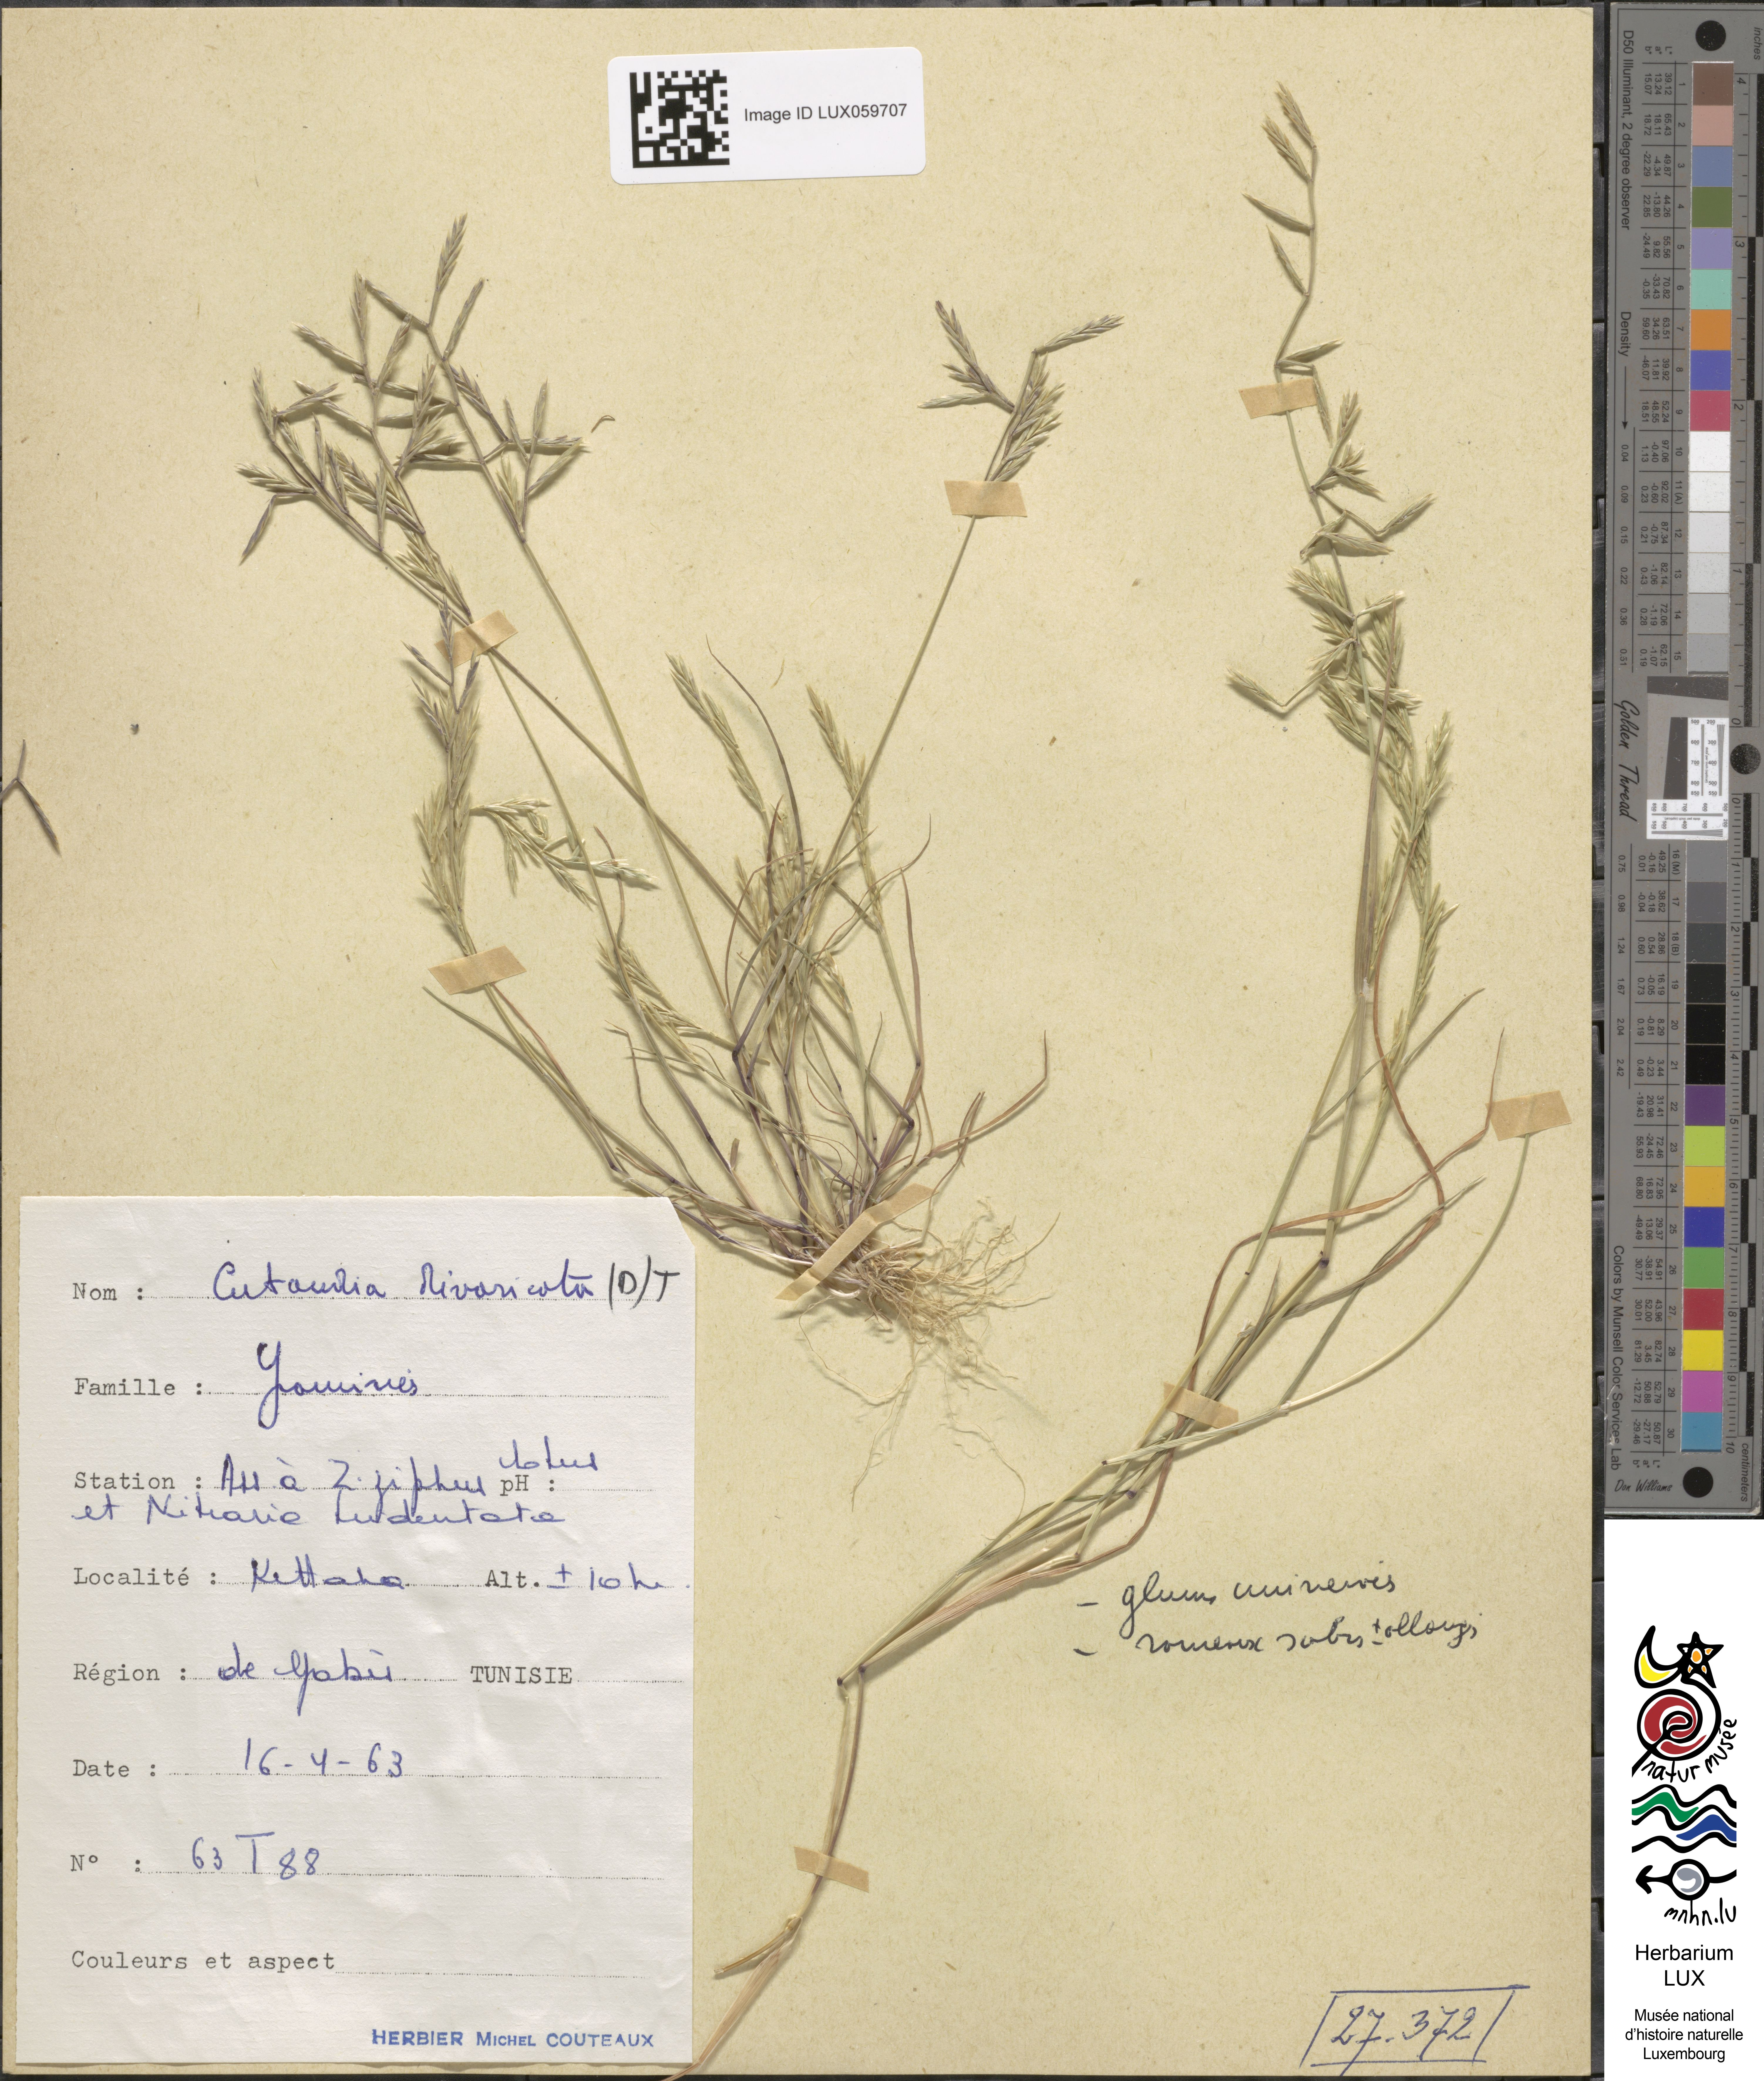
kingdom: Plantae
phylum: Tracheophyta
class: Liliopsida
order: Poales
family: Poaceae
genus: Cutandia
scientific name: Cutandia divaricata
